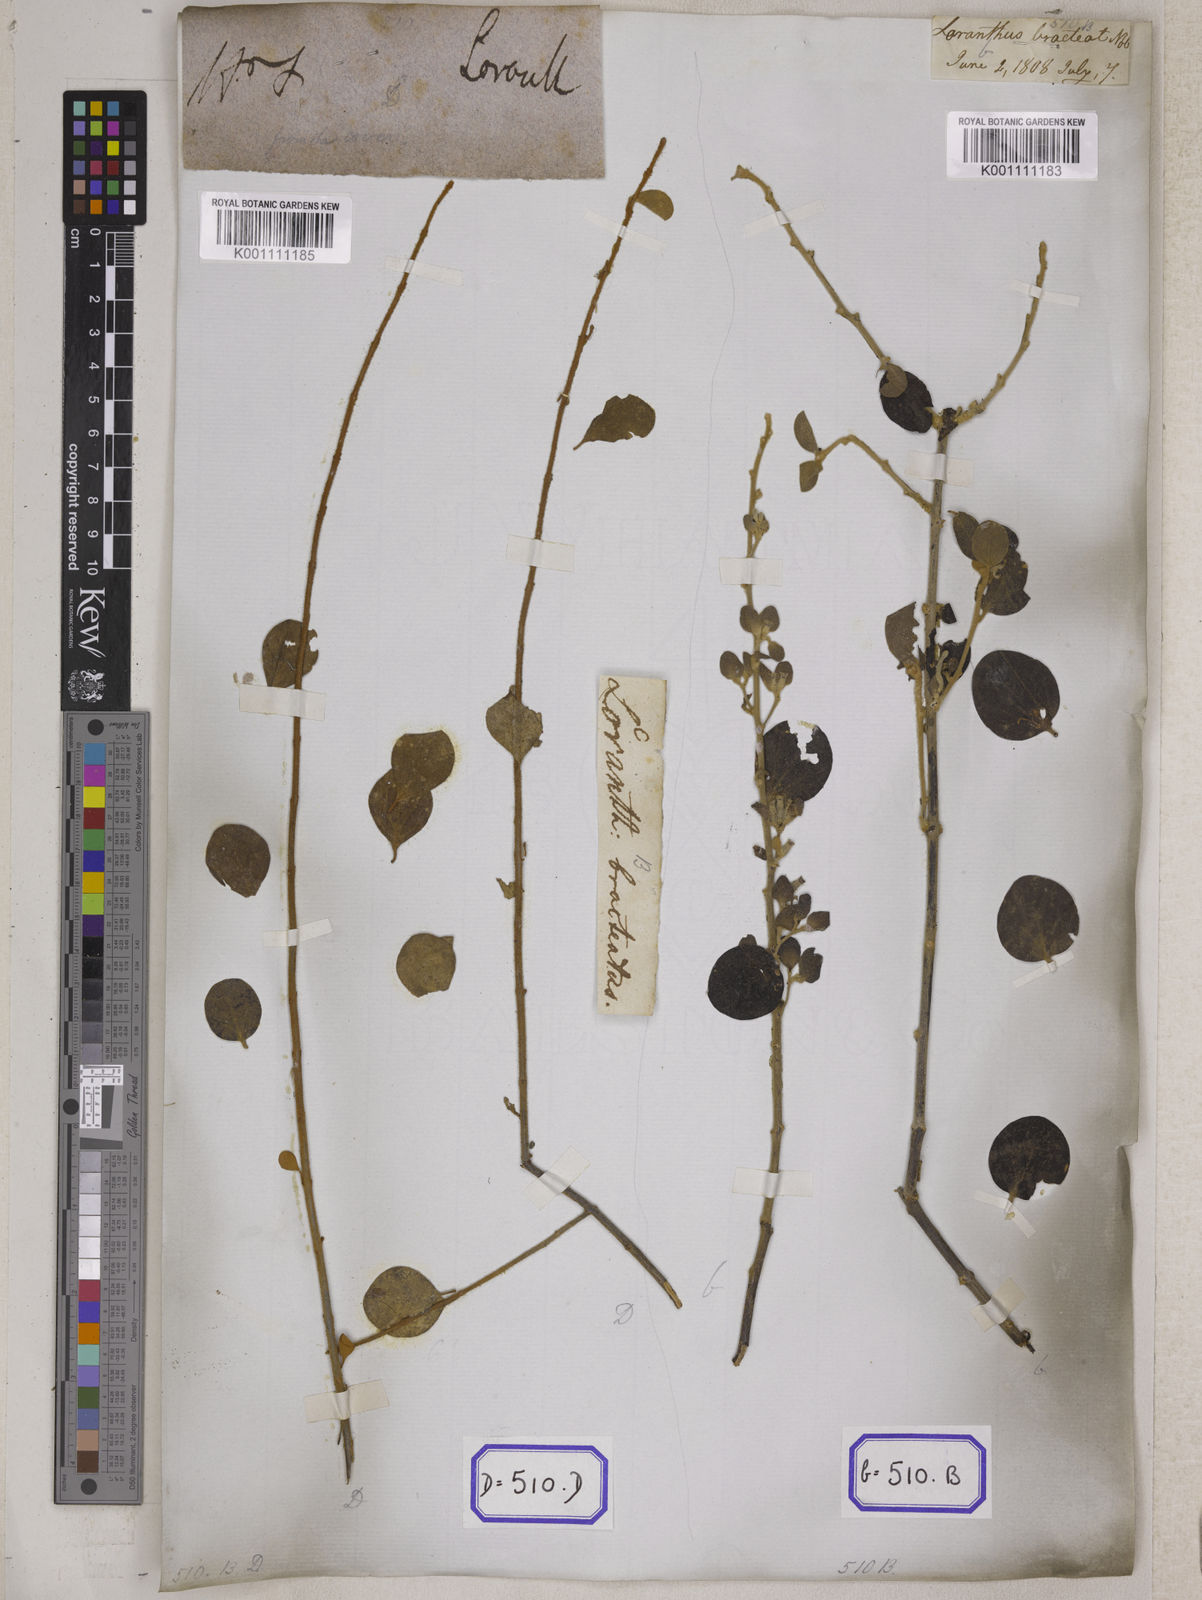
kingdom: Plantae
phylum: Tracheophyta
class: Magnoliopsida
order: Santalales
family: Loranthaceae
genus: Loranthus
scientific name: Loranthus
